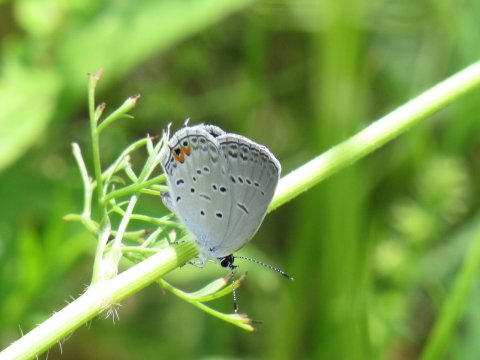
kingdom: Animalia
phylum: Arthropoda
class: Insecta
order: Lepidoptera
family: Lycaenidae
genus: Elkalyce
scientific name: Elkalyce comyntas
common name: Eastern Tailed-Blue
